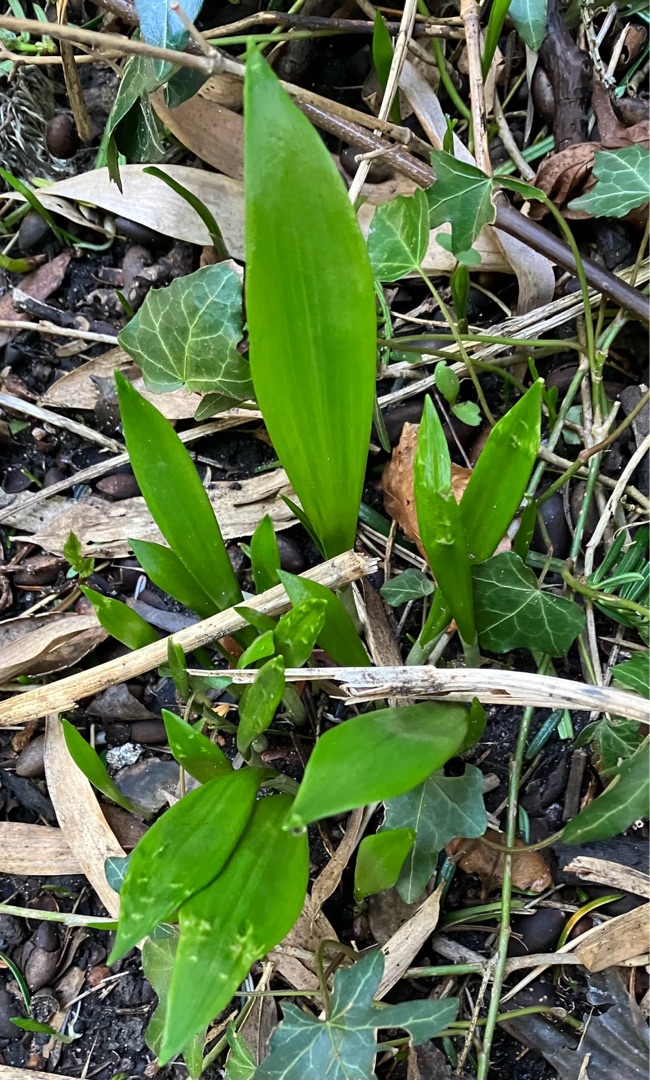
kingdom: Plantae
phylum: Tracheophyta
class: Liliopsida
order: Asparagales
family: Amaryllidaceae
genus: Allium
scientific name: Allium ursinum
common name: Rams-løg
